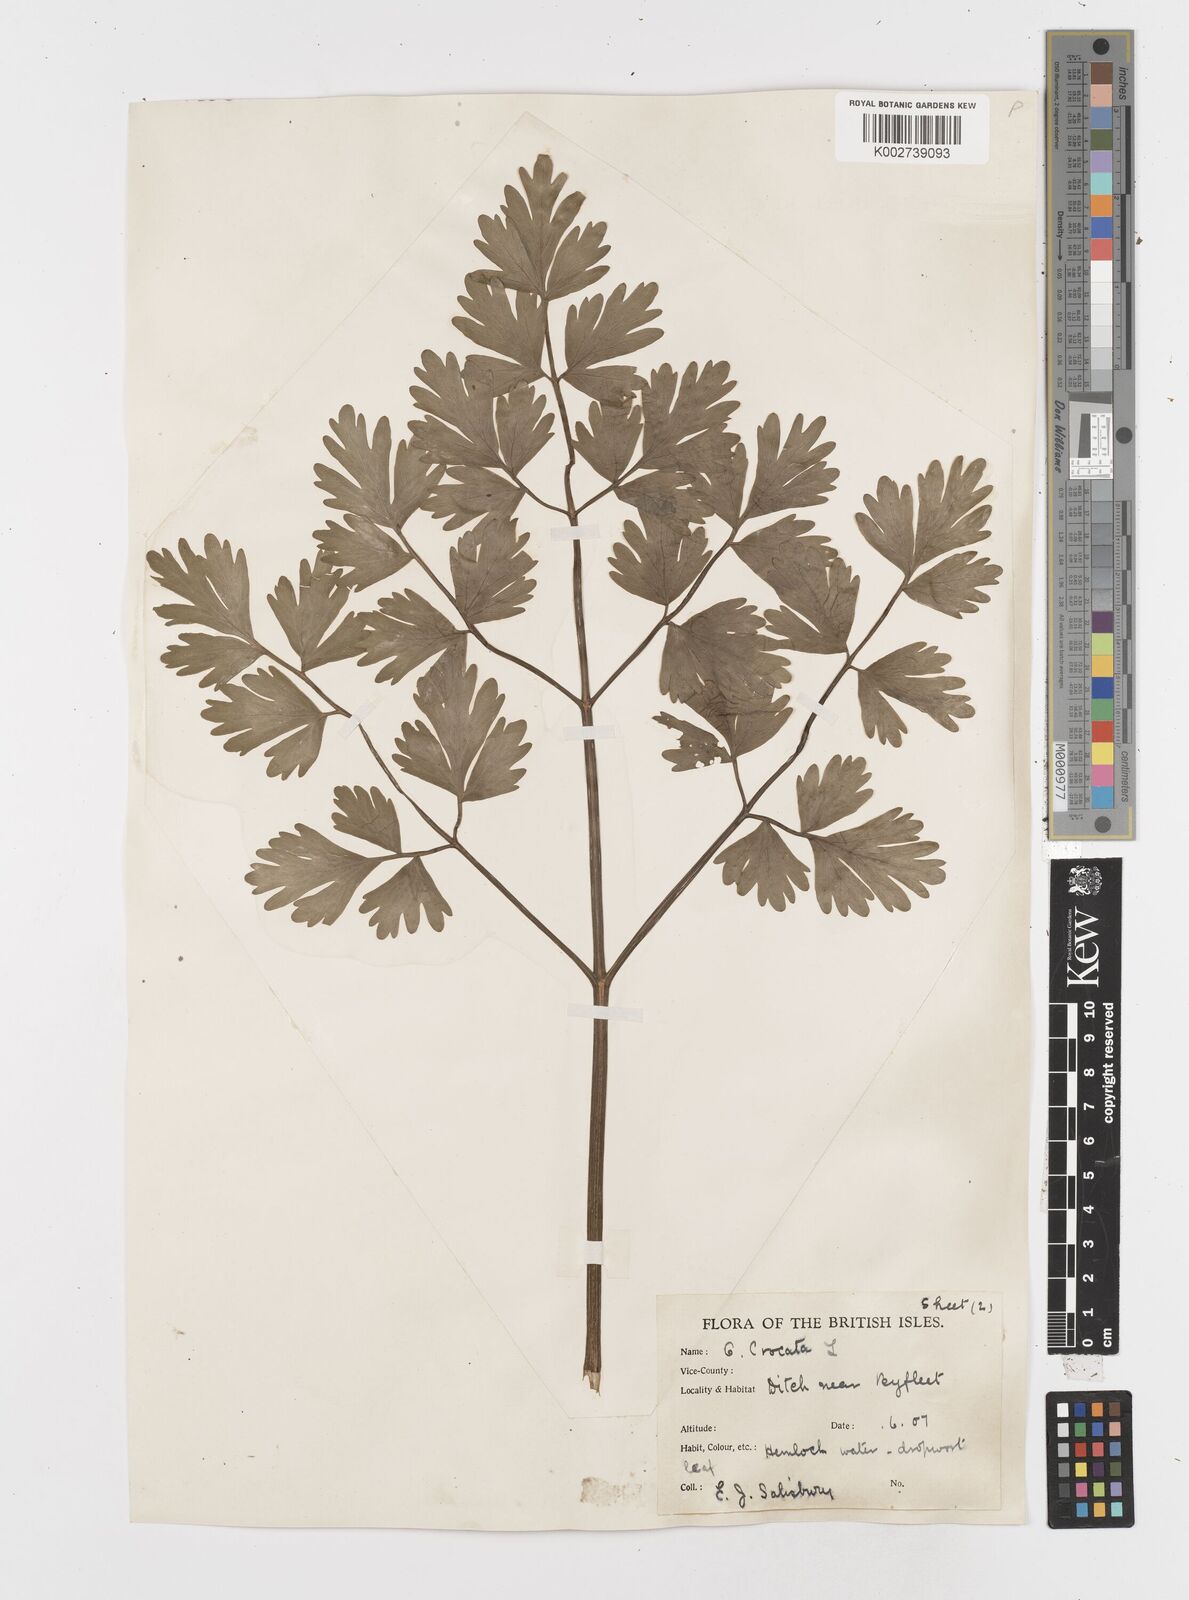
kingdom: Plantae
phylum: Tracheophyta
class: Magnoliopsida
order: Apiales
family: Apiaceae
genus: Oenanthe
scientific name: Oenanthe crocata
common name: Hemlock water-dropwort
